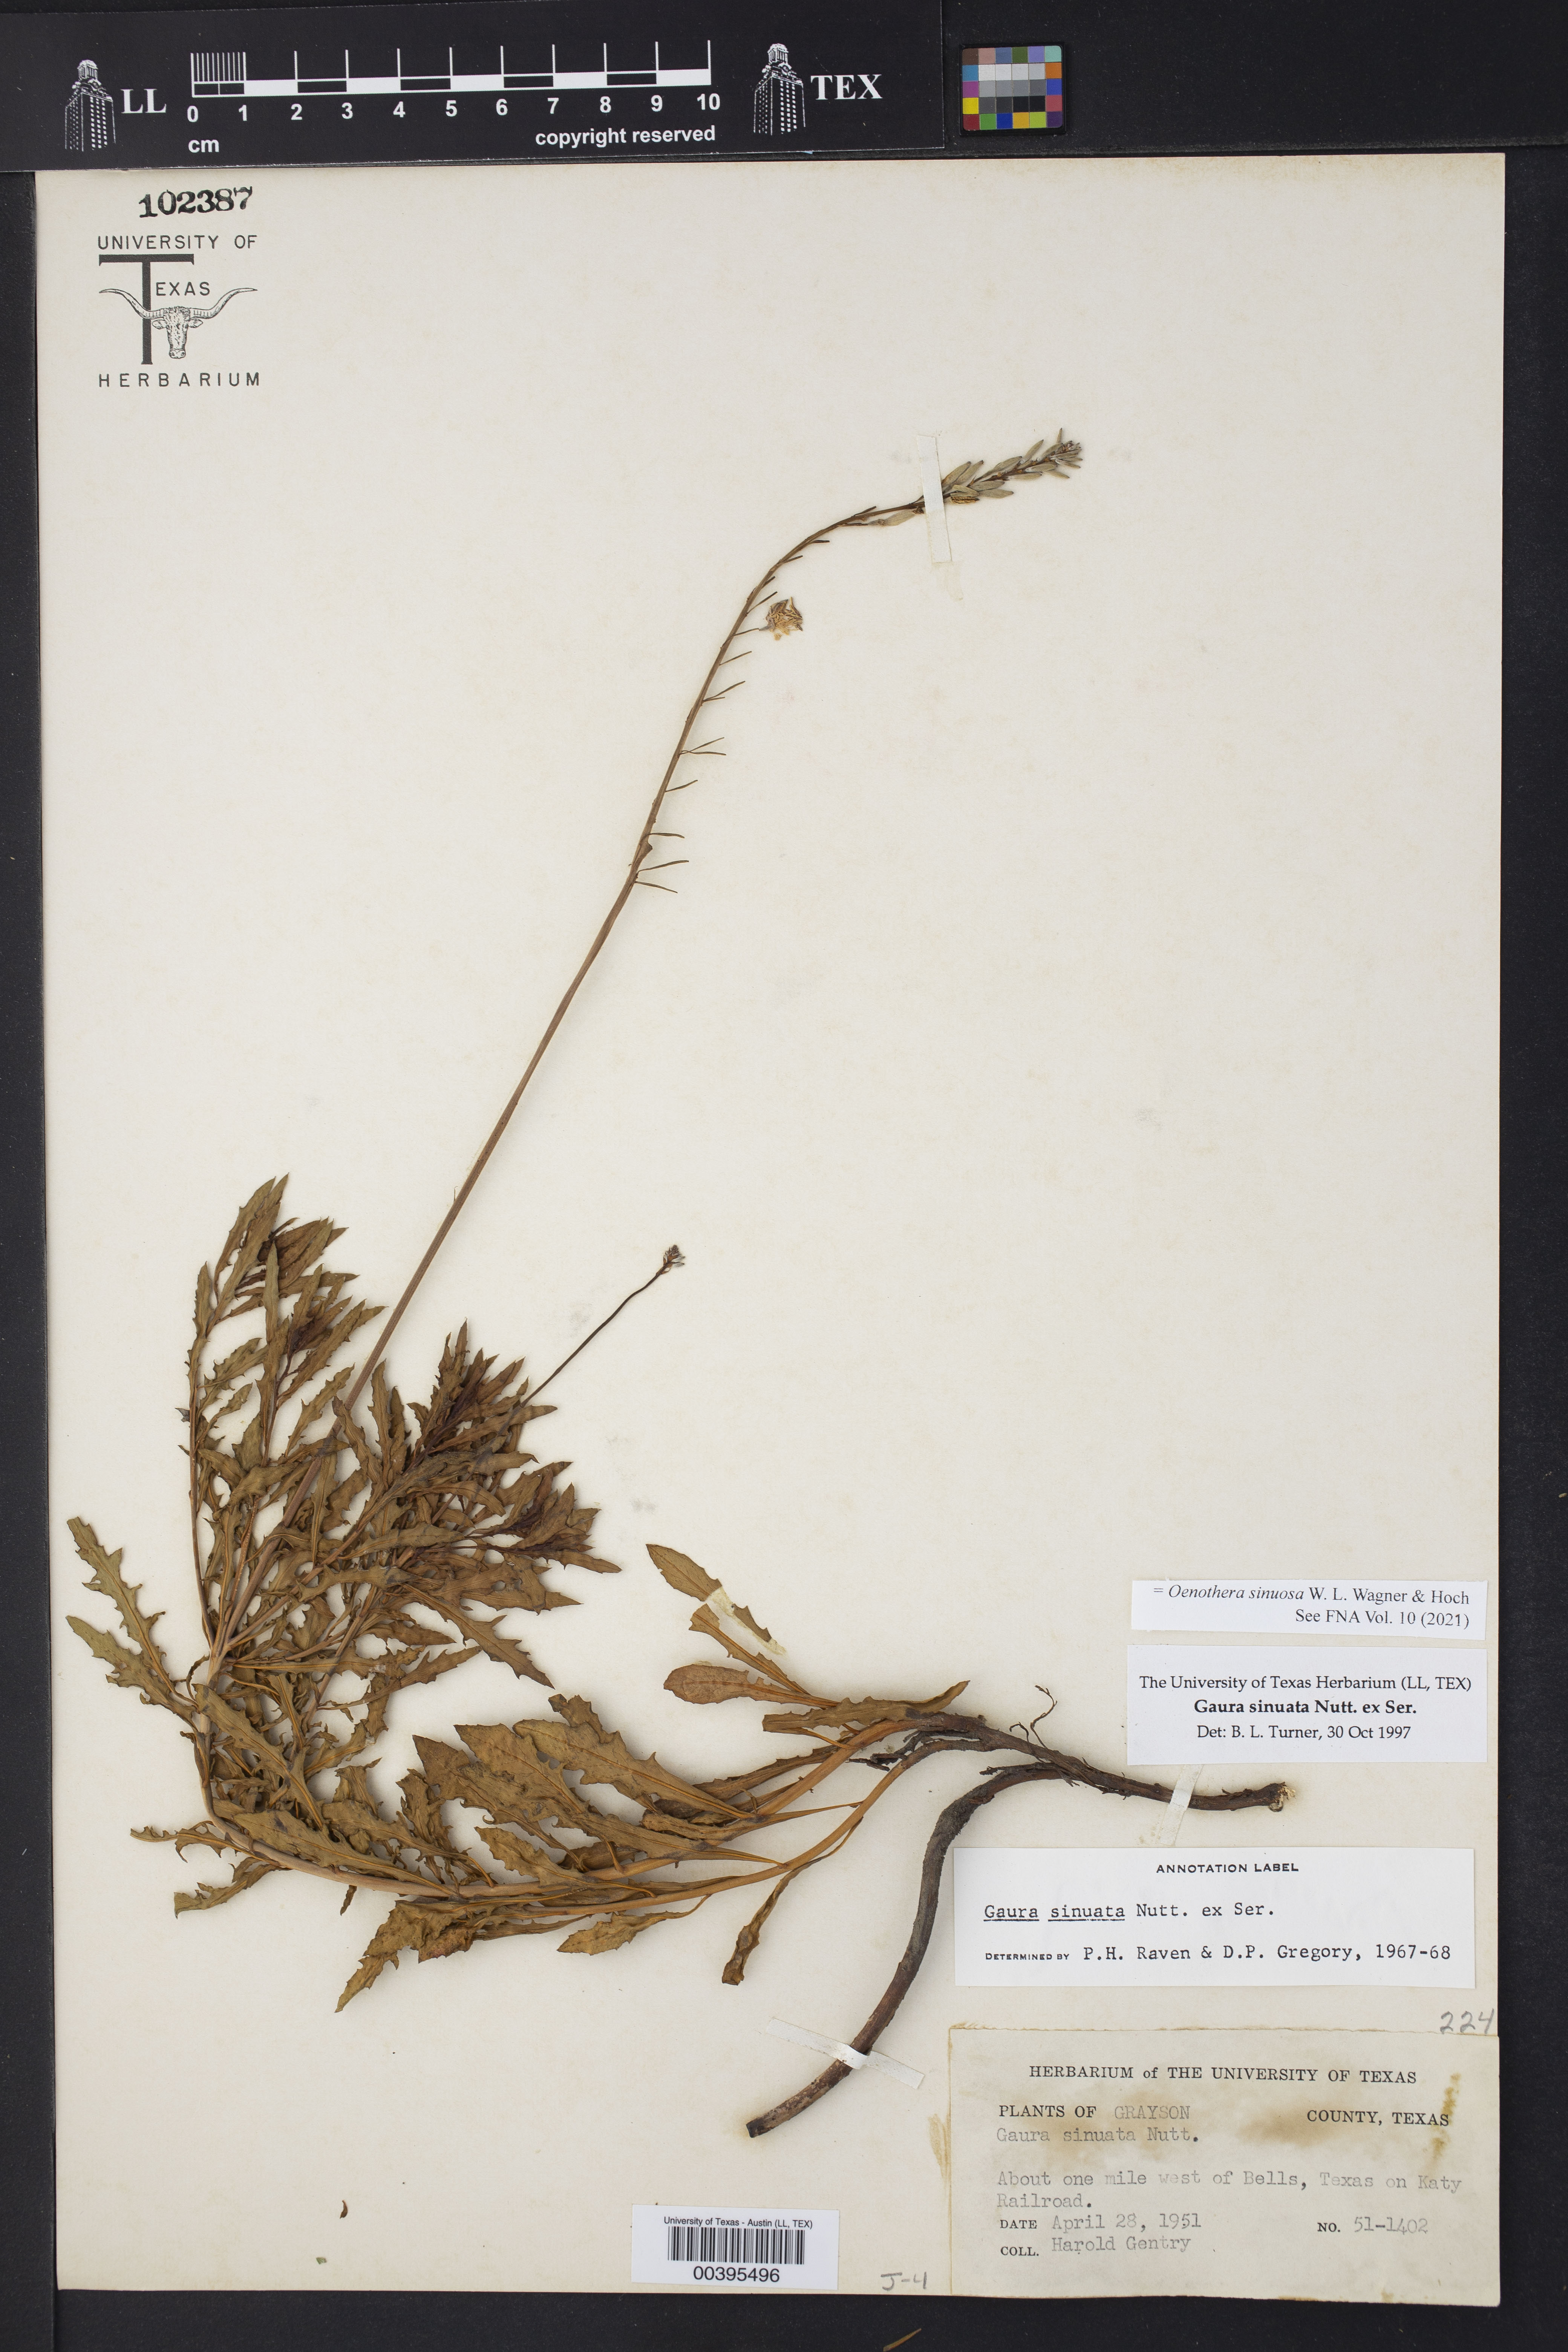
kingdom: Plantae
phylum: Tracheophyta
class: Magnoliopsida
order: Myrtales
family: Onagraceae
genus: Oenothera
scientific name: Oenothera sinuosa
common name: Wavyleaf beeblossom
